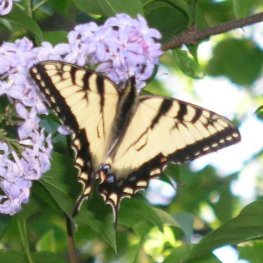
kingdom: Animalia
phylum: Arthropoda
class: Insecta
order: Lepidoptera
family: Papilionidae
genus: Pterourus
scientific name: Pterourus canadensis
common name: Canadian Tiger Swallowtail
